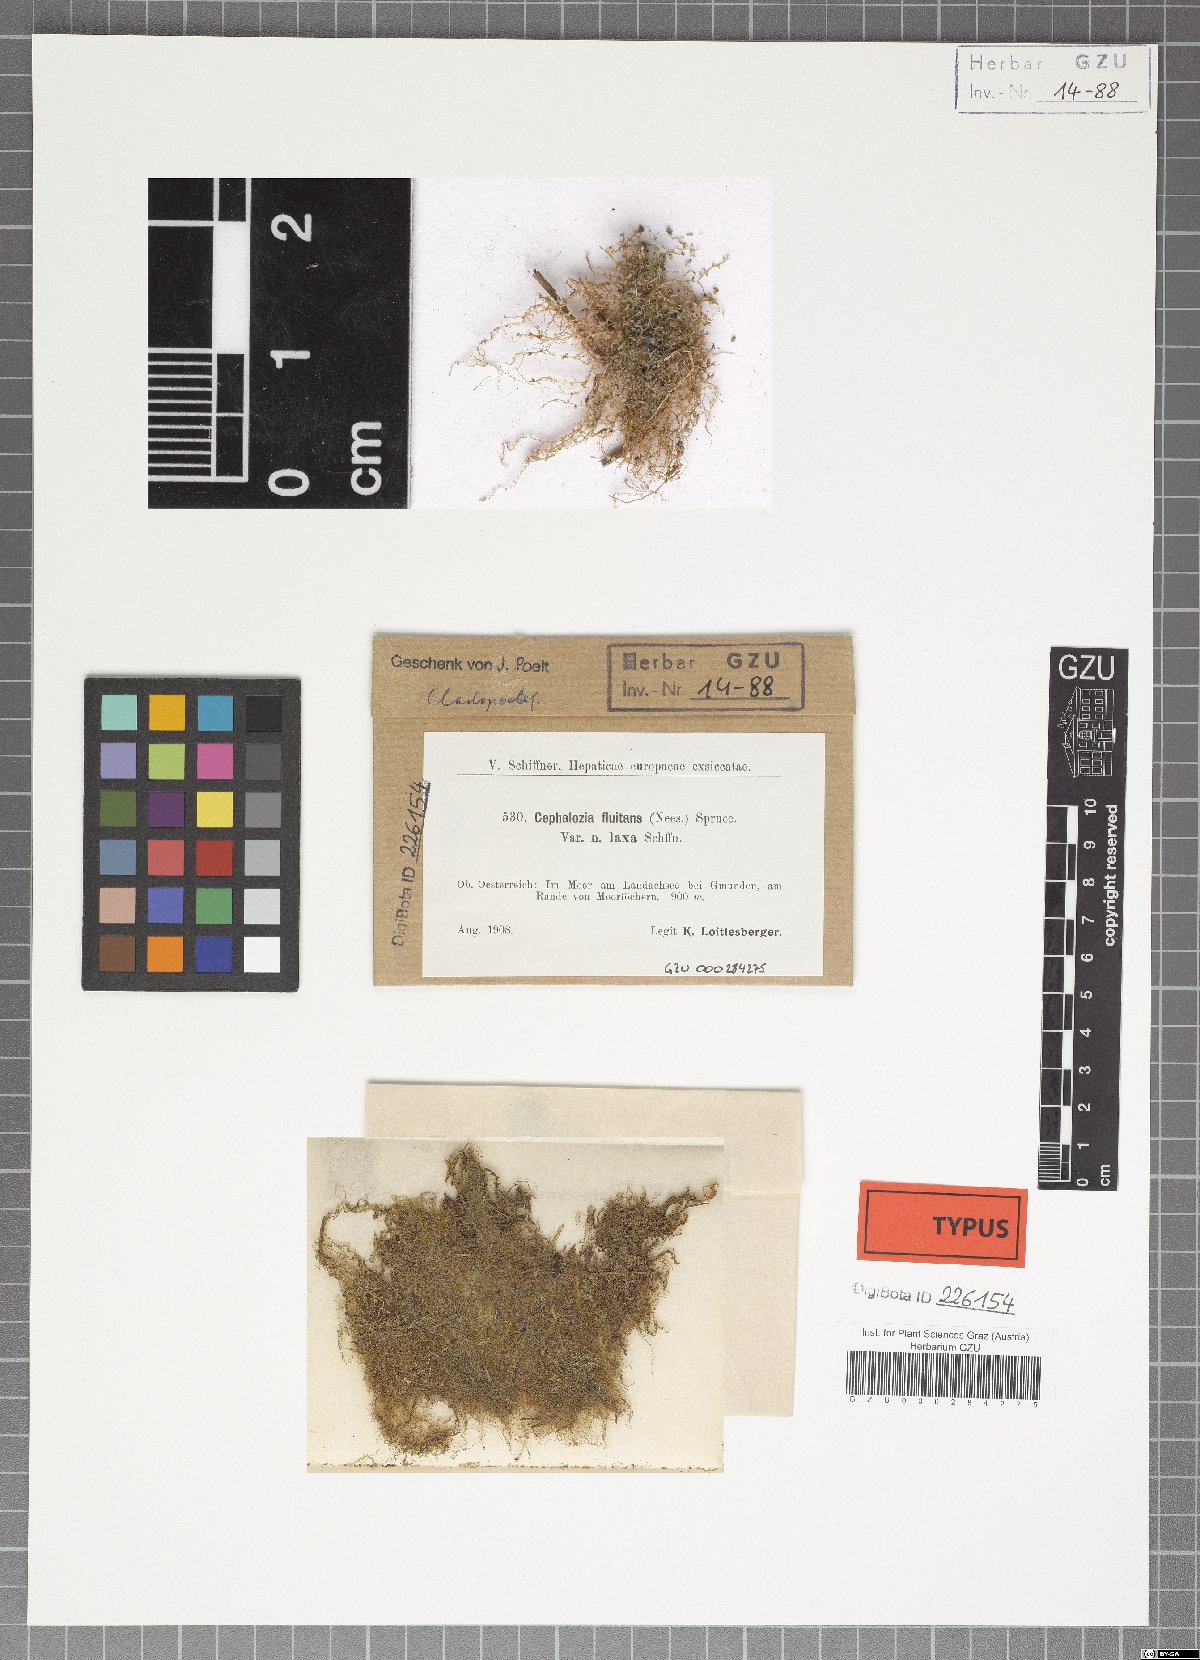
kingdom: Plantae
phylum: Marchantiophyta
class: Jungermanniopsida
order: Jungermanniales
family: Cephaloziaceae
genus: Odontoschisma
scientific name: Odontoschisma fluitans
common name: Cladopodiella moss
